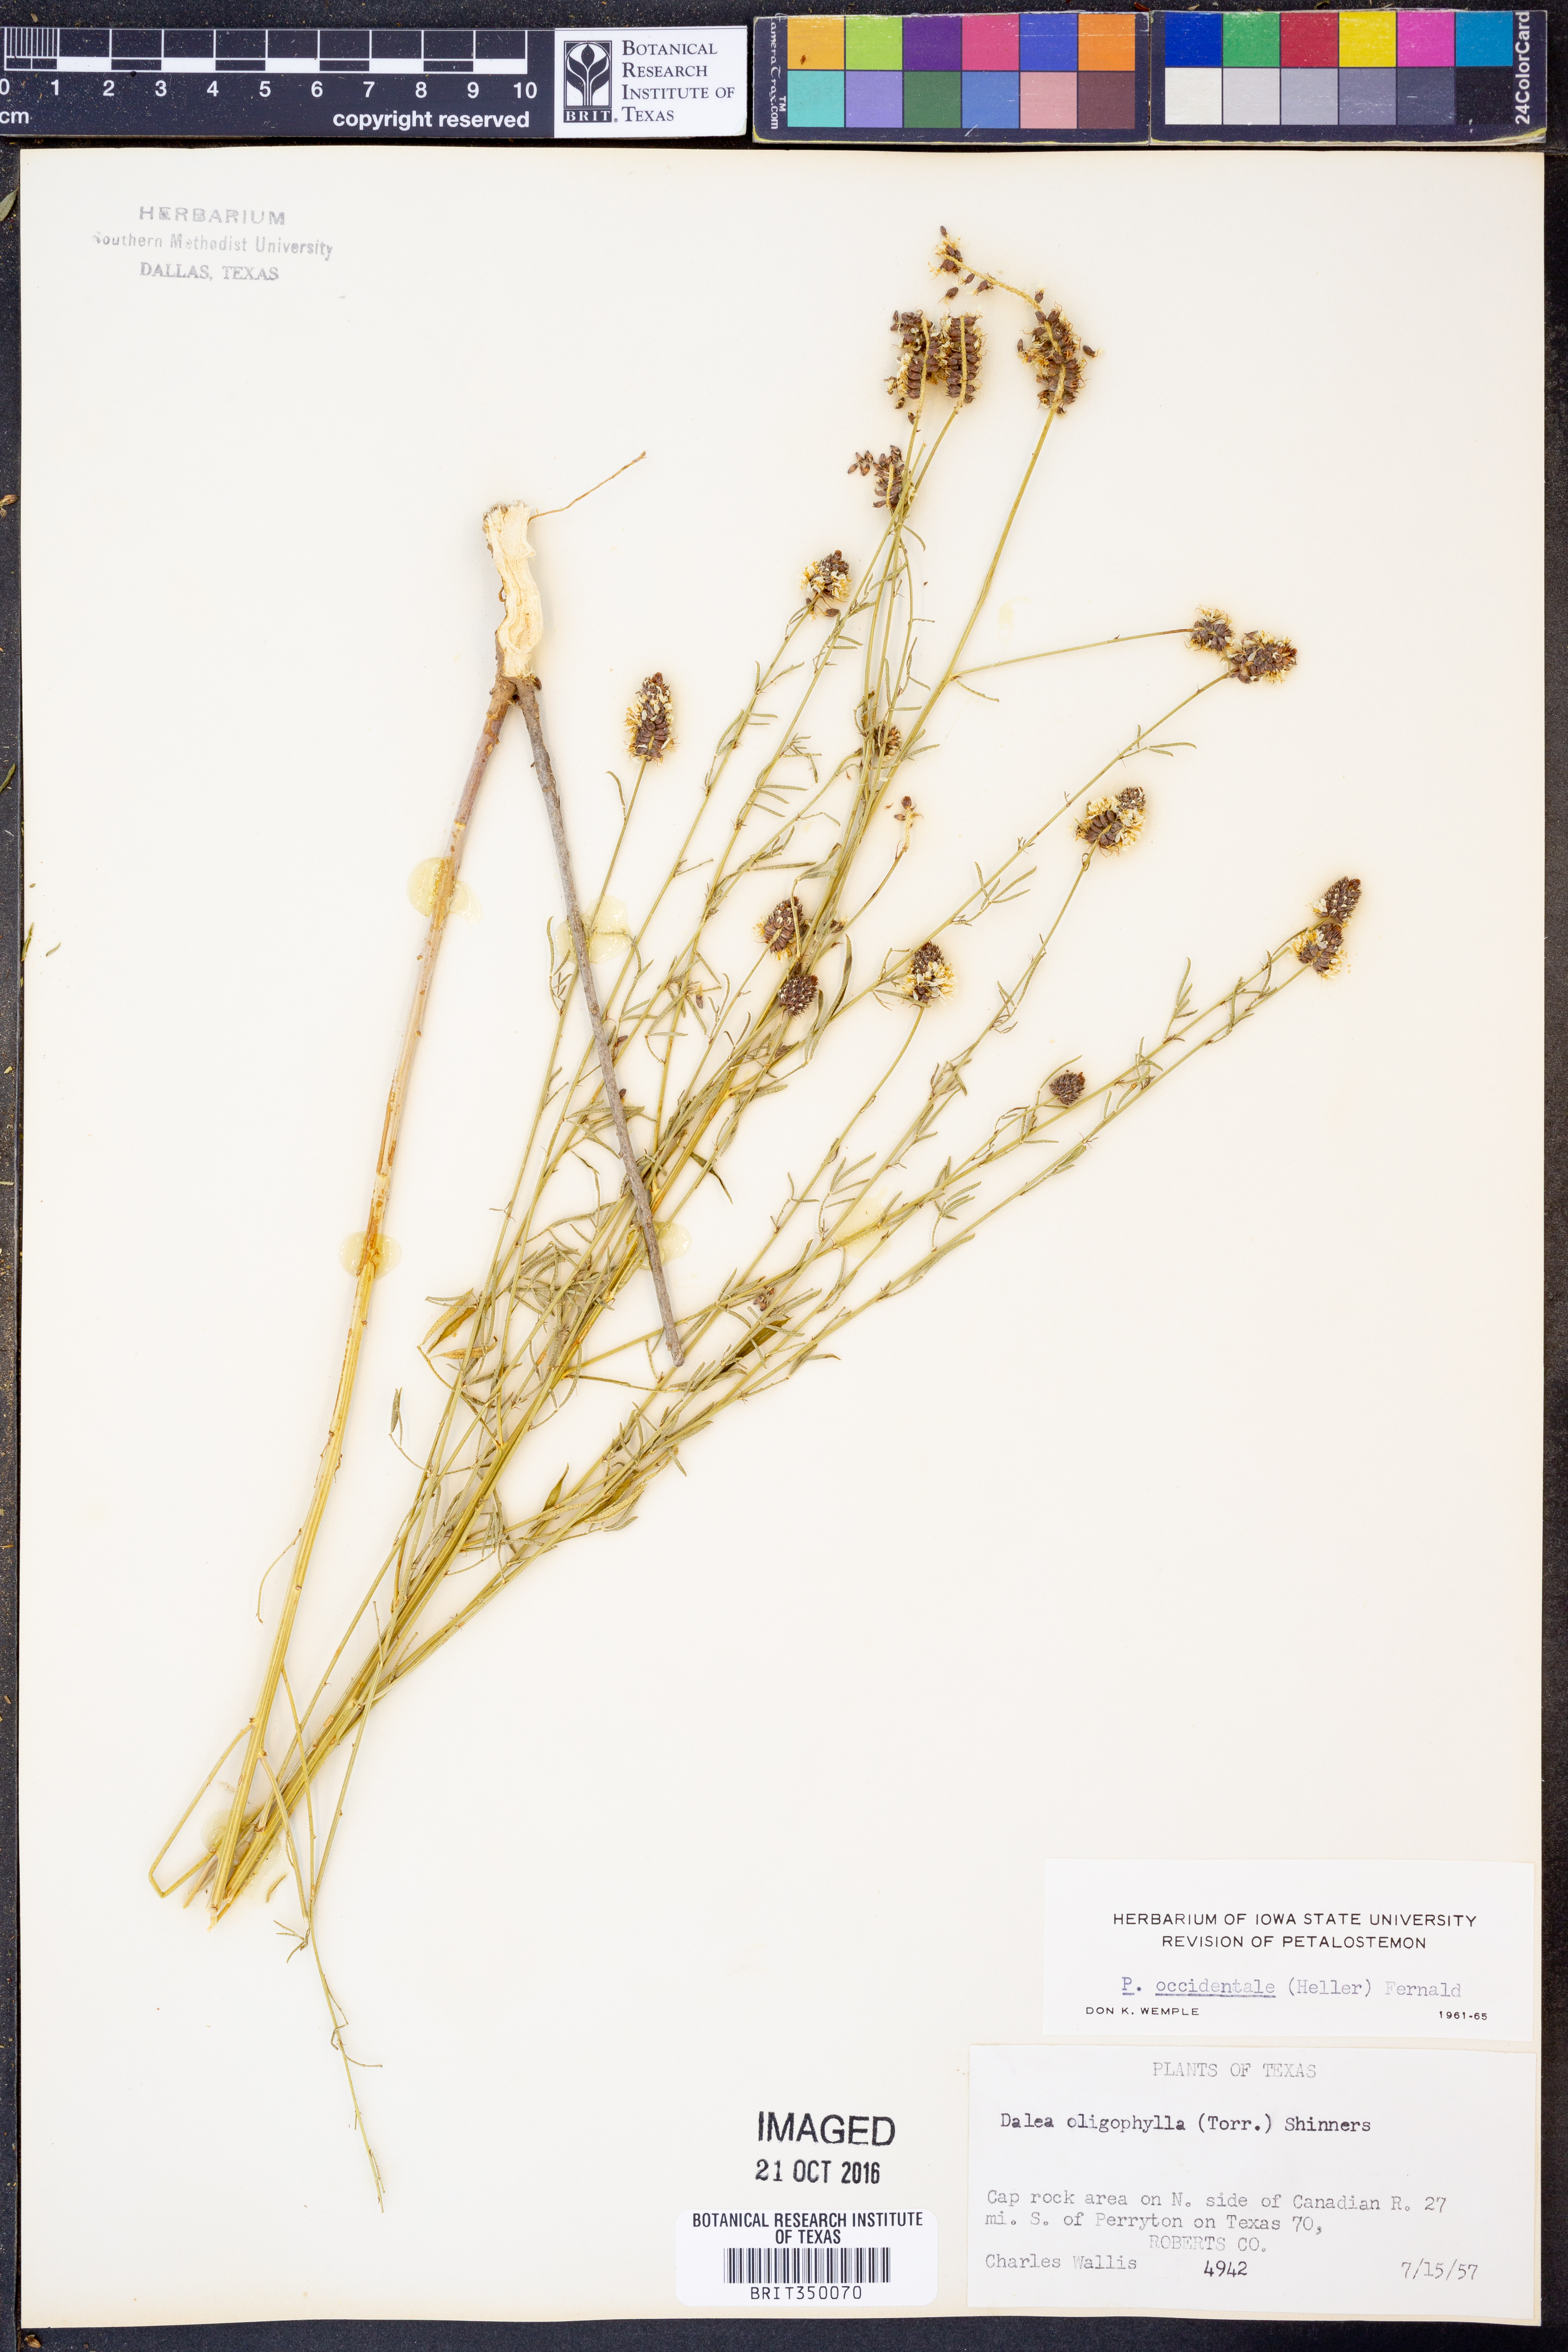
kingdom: Plantae
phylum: Tracheophyta
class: Magnoliopsida
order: Fabales
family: Fabaceae
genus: Dalea
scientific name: Dalea candida
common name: White prairie-clover
